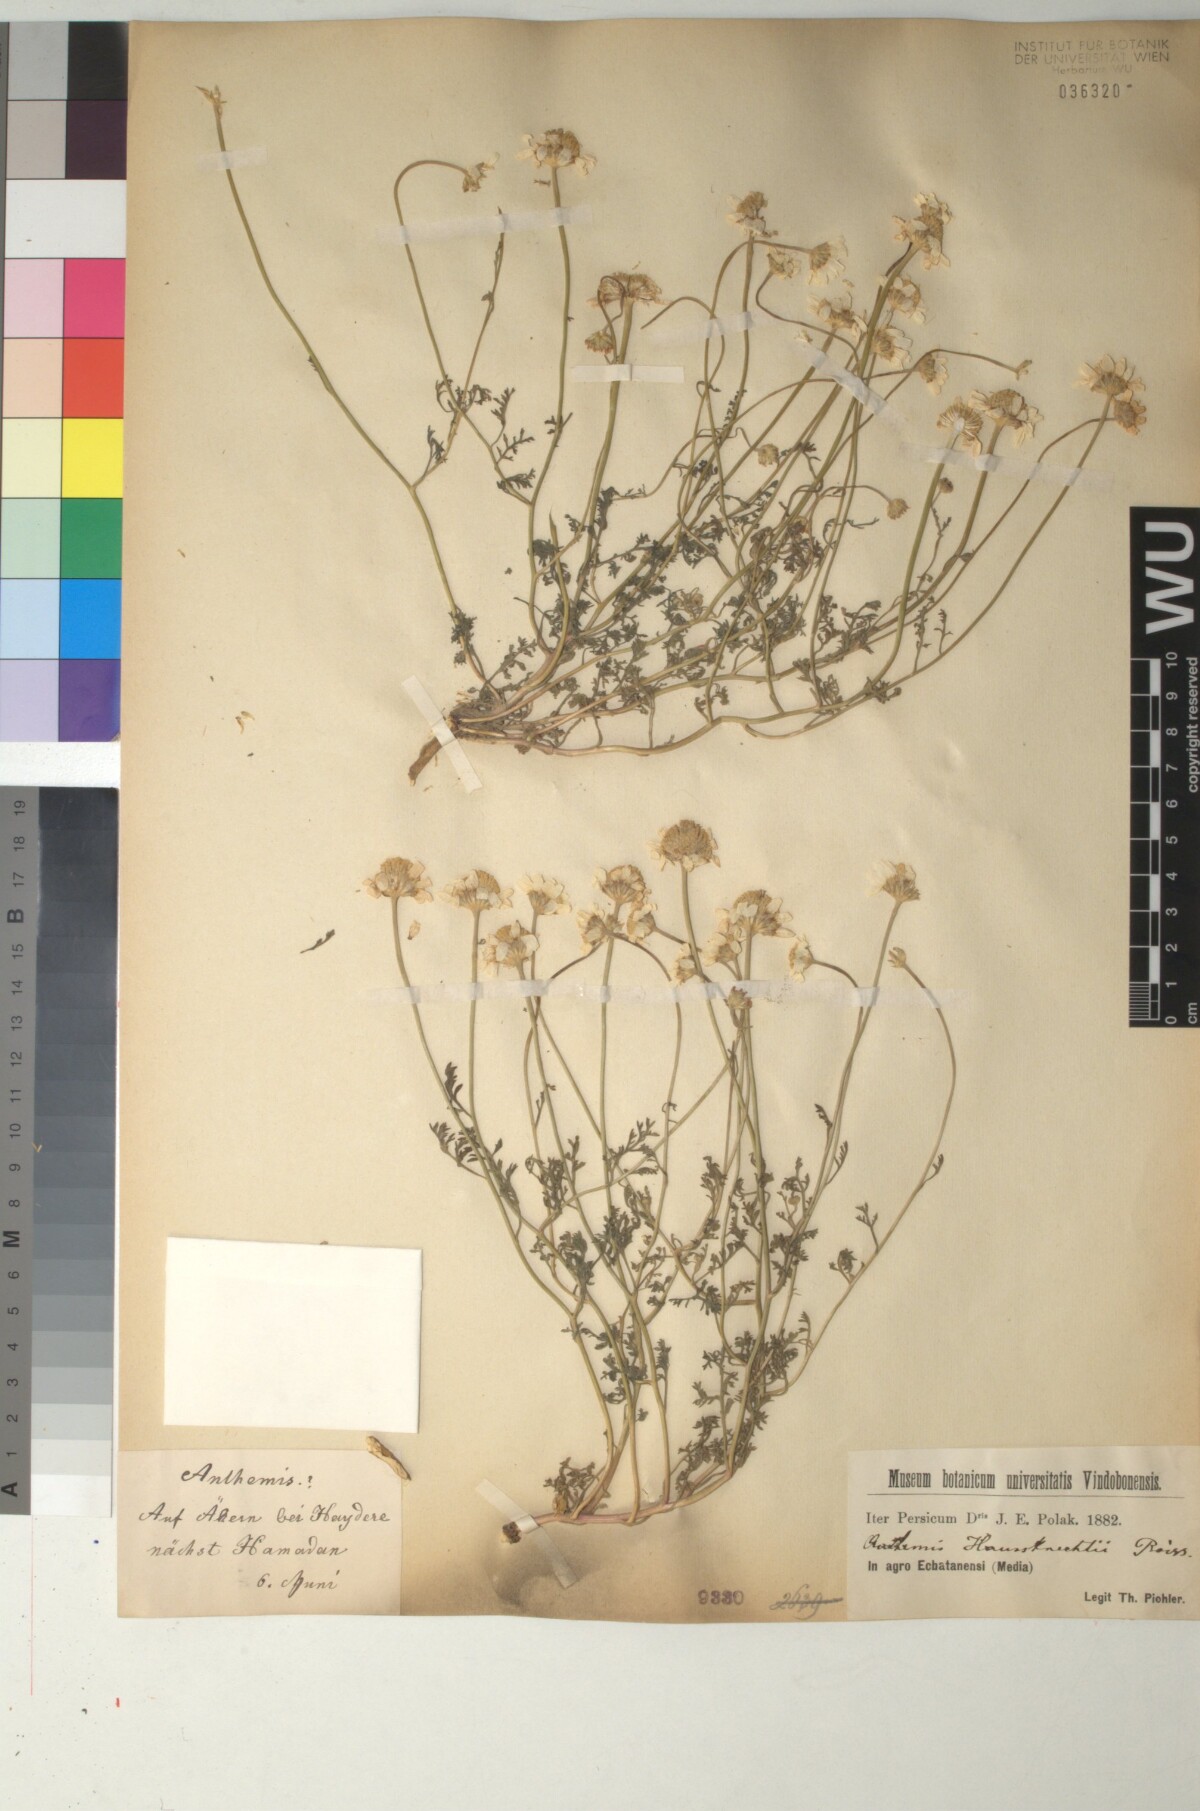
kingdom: Plantae
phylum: Tracheophyta
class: Magnoliopsida
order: Asterales
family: Asteraceae
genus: Anthemis
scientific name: Anthemis haussknechtii
